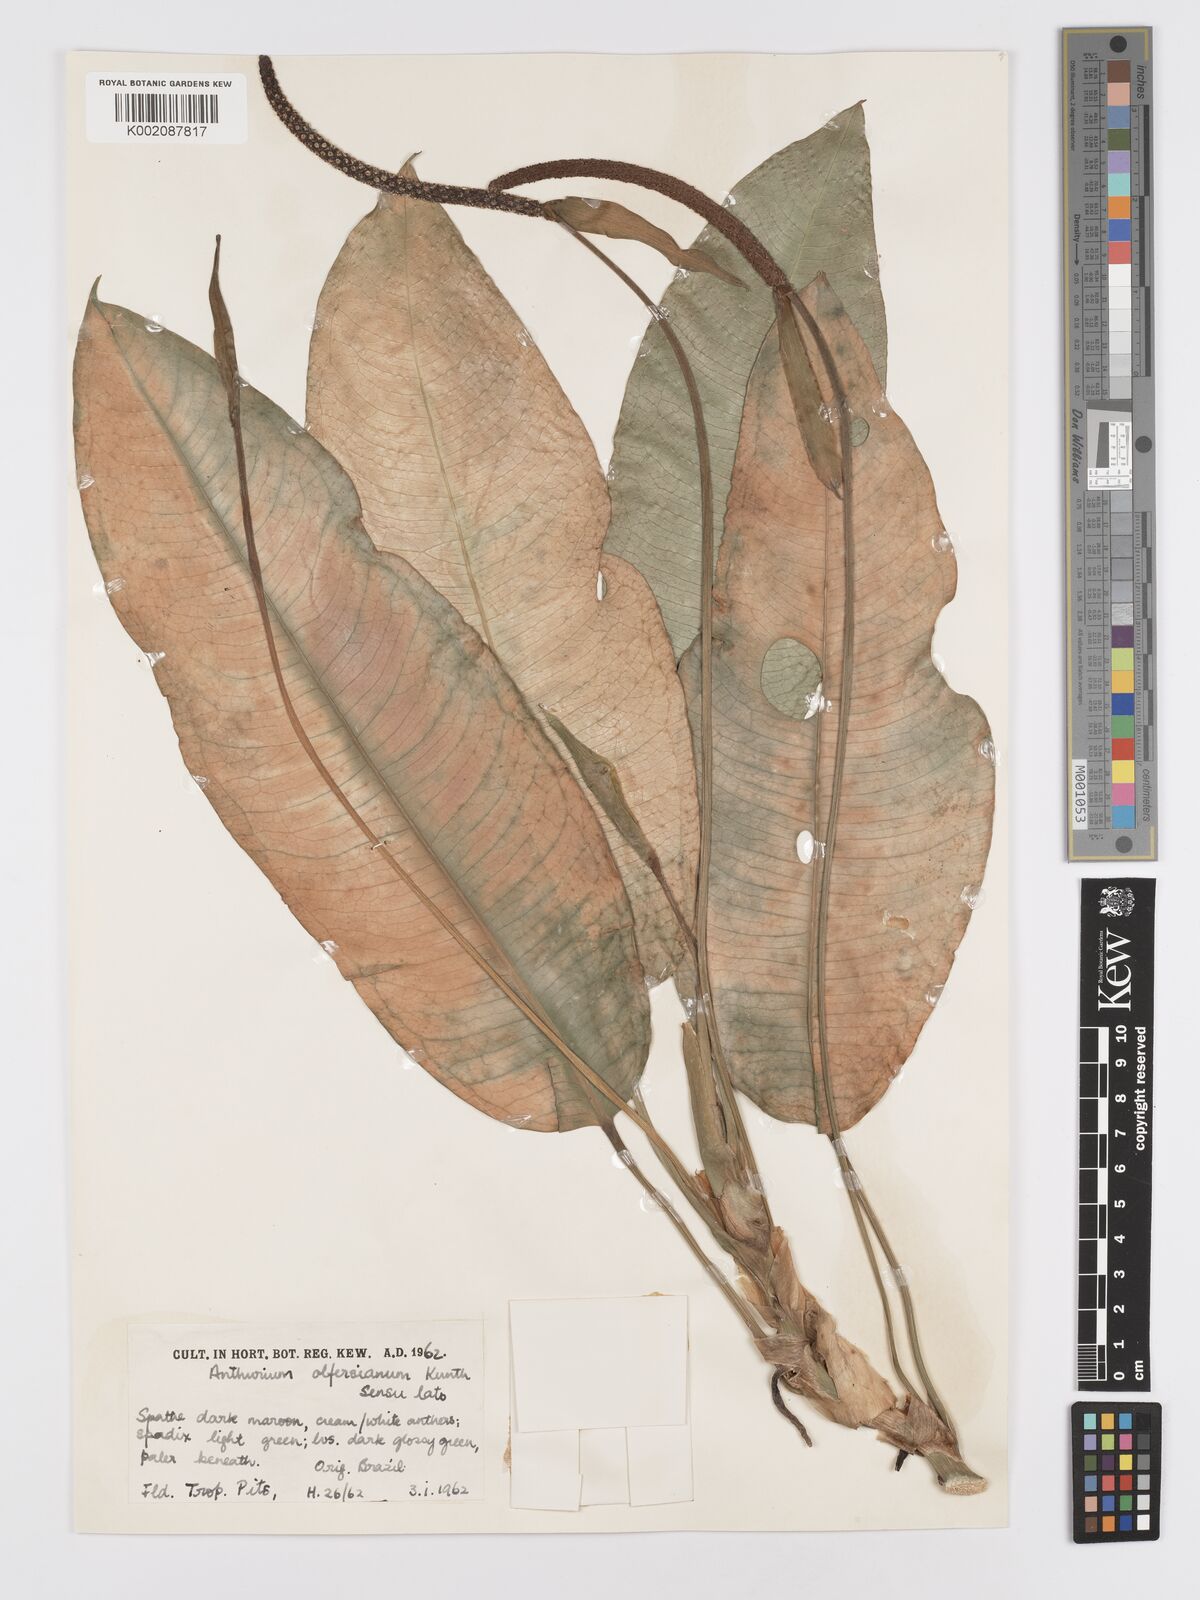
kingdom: Plantae
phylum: Tracheophyta
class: Liliopsida
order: Alismatales
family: Araceae
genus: Anthurium
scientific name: Anthurium parasiticum
